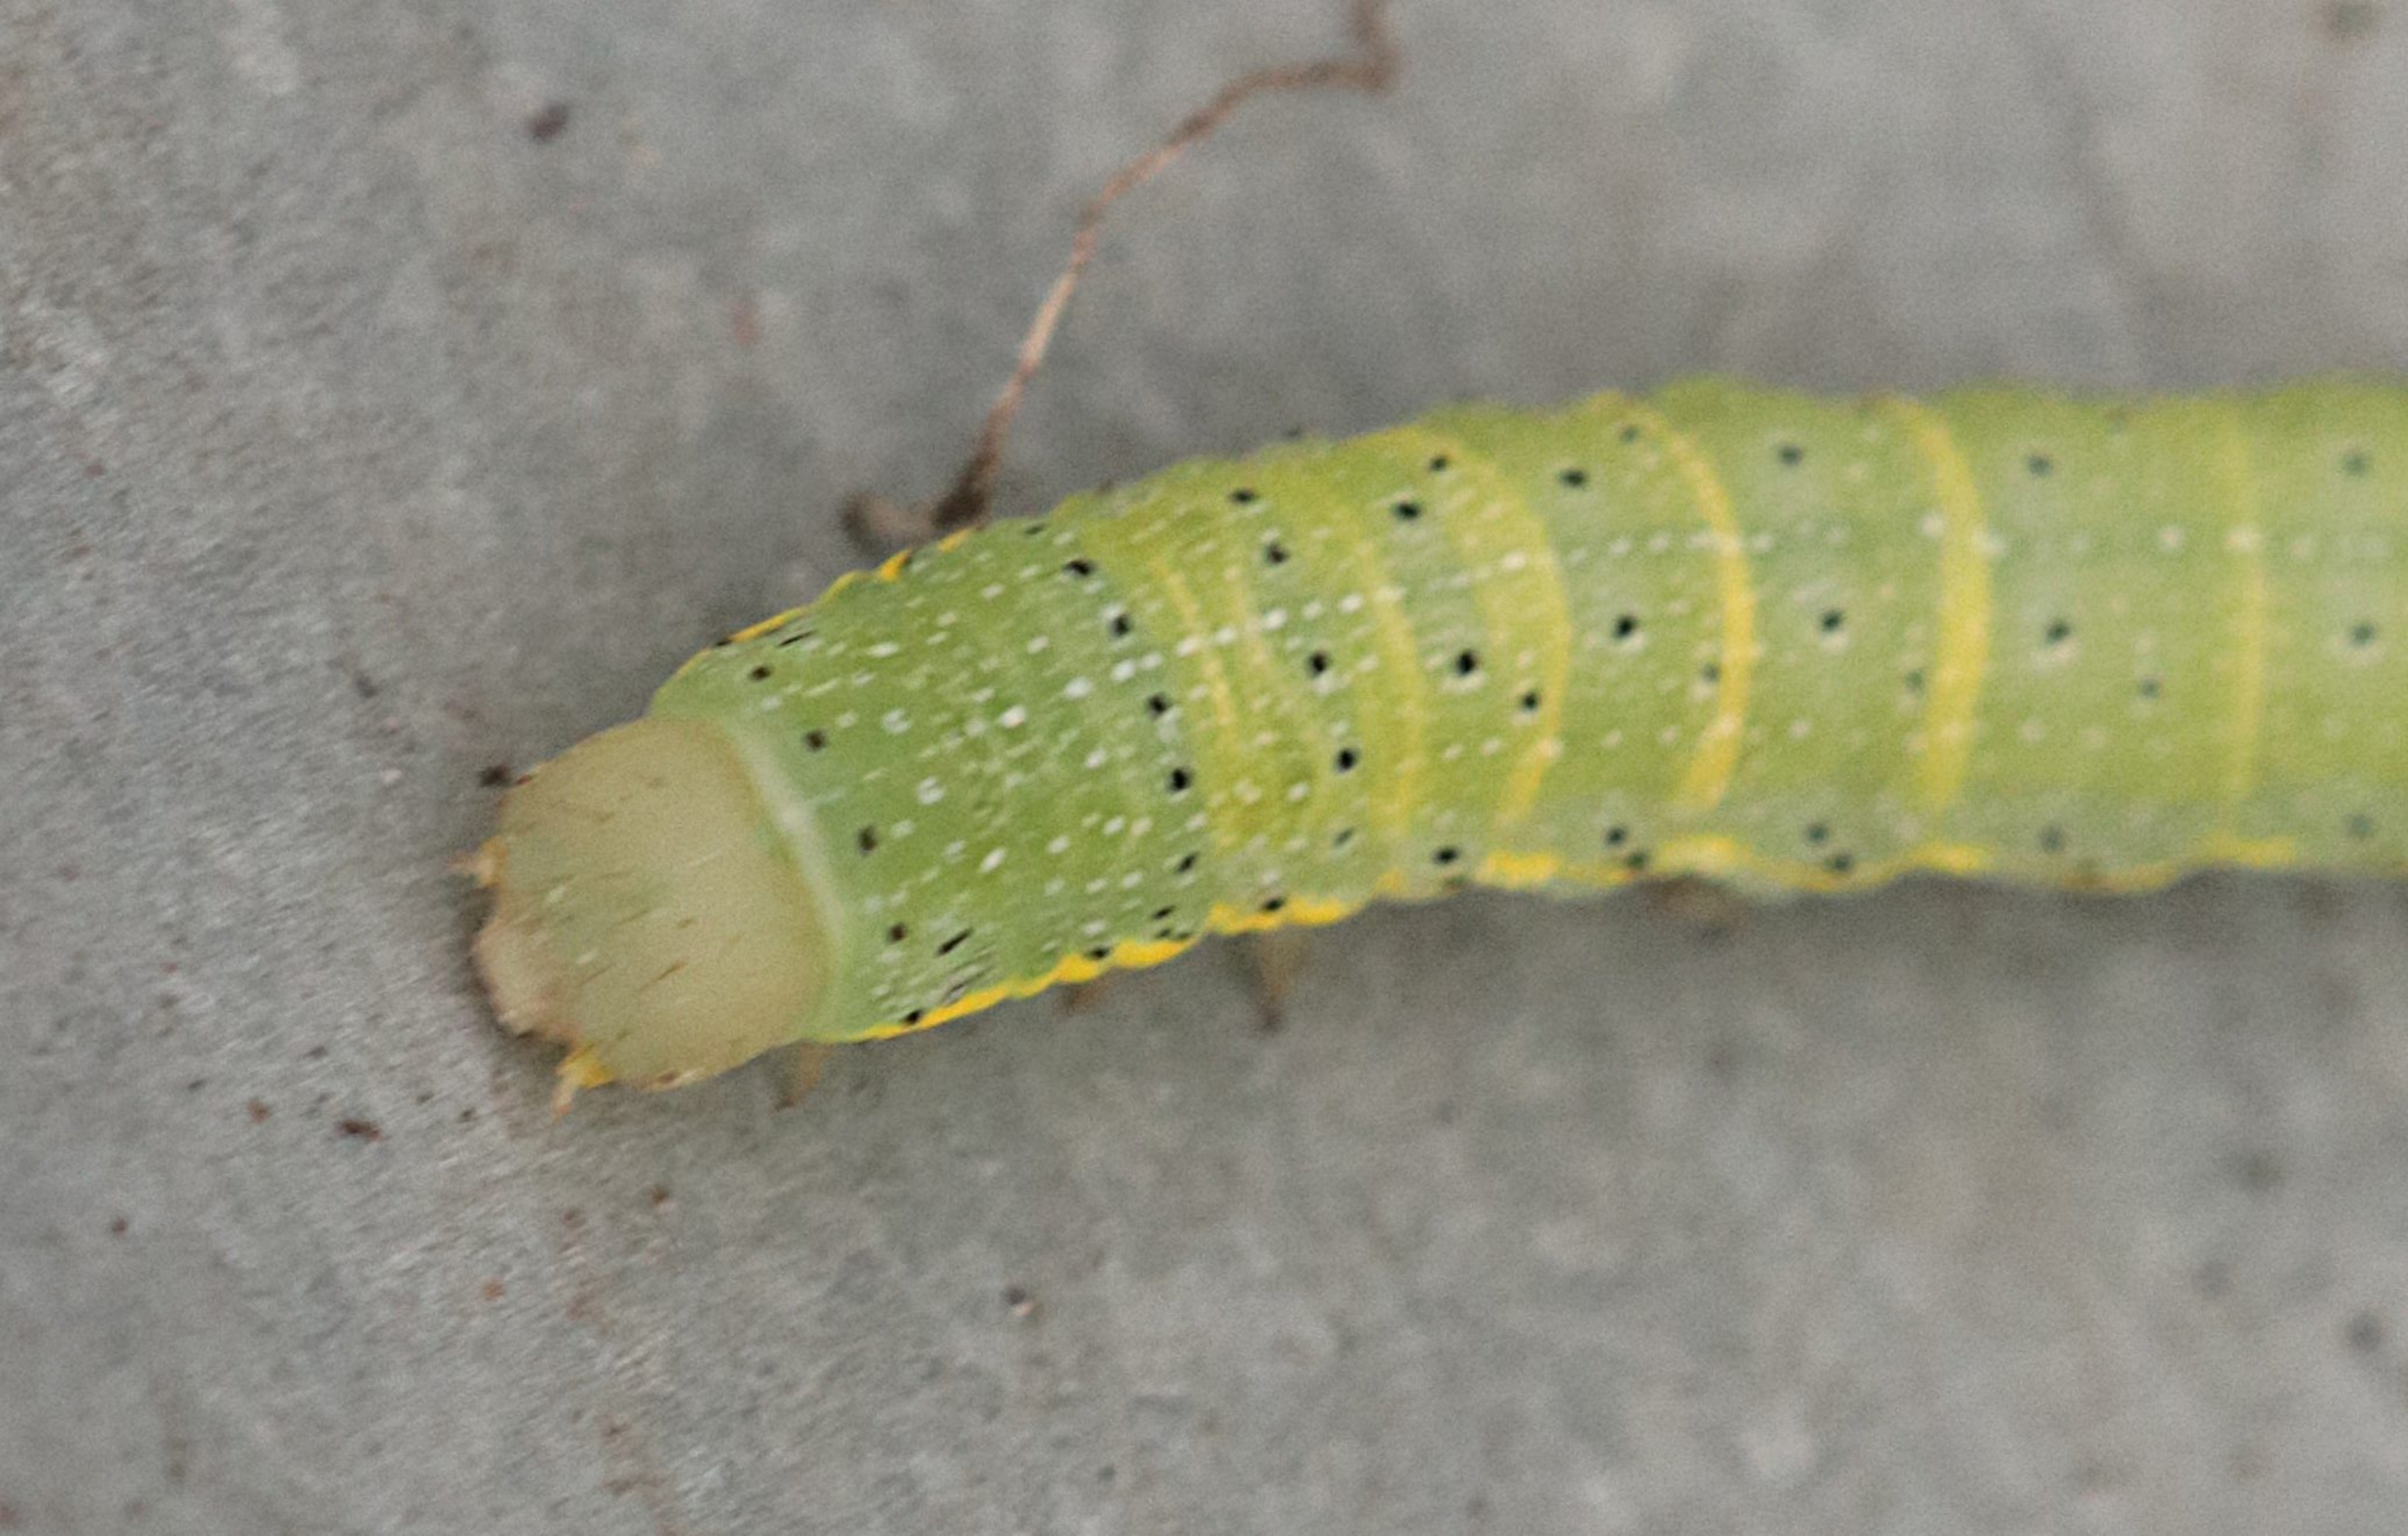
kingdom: Animalia
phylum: Arthropoda
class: Insecta
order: Lepidoptera
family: Noctuidae
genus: Lacanobia
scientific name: Lacanobia oleracea
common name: Haveugle
